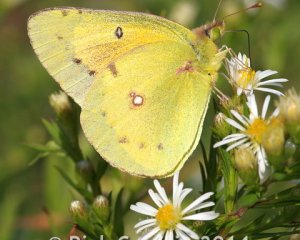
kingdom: Animalia
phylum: Arthropoda
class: Insecta
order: Lepidoptera
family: Pieridae
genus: Colias
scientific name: Colias eurytheme
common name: Orange Sulphur
